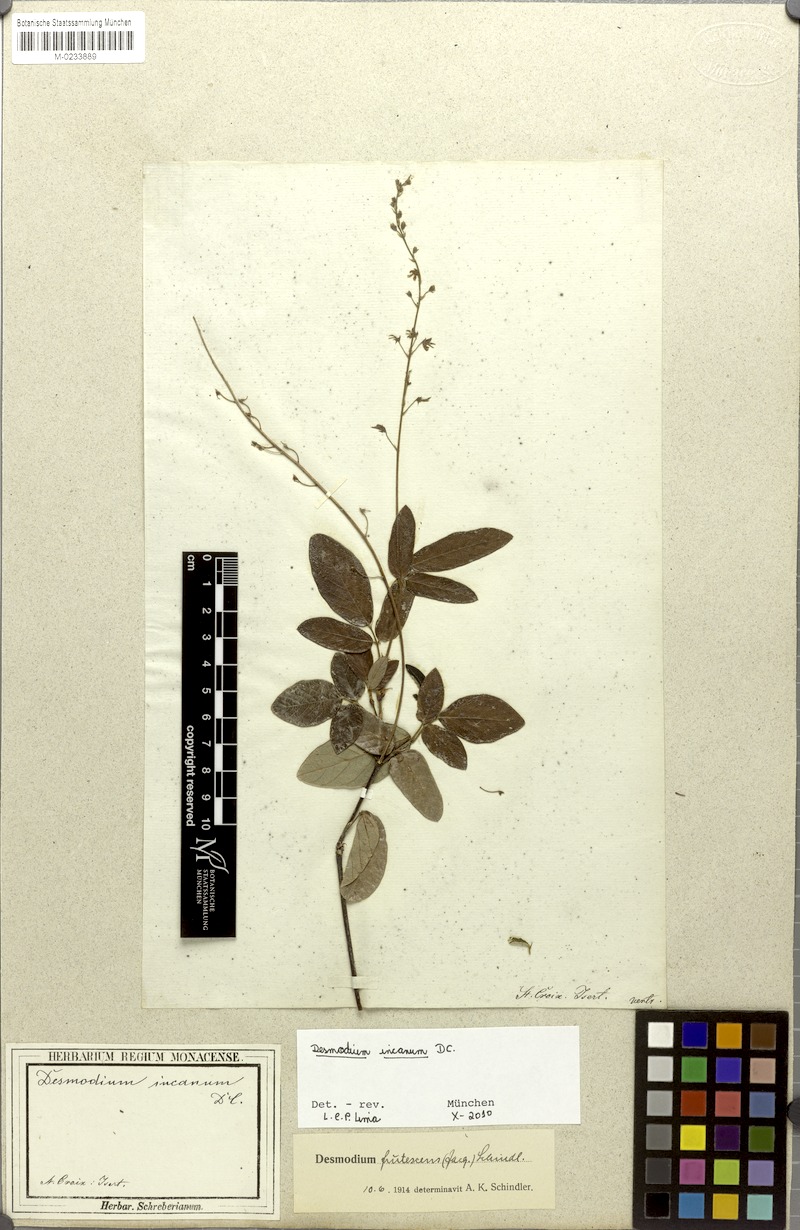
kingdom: Plantae
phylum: Tracheophyta
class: Magnoliopsida
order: Fabales
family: Fabaceae
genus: Desmodium
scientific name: Desmodium incanum
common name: Tickclover
